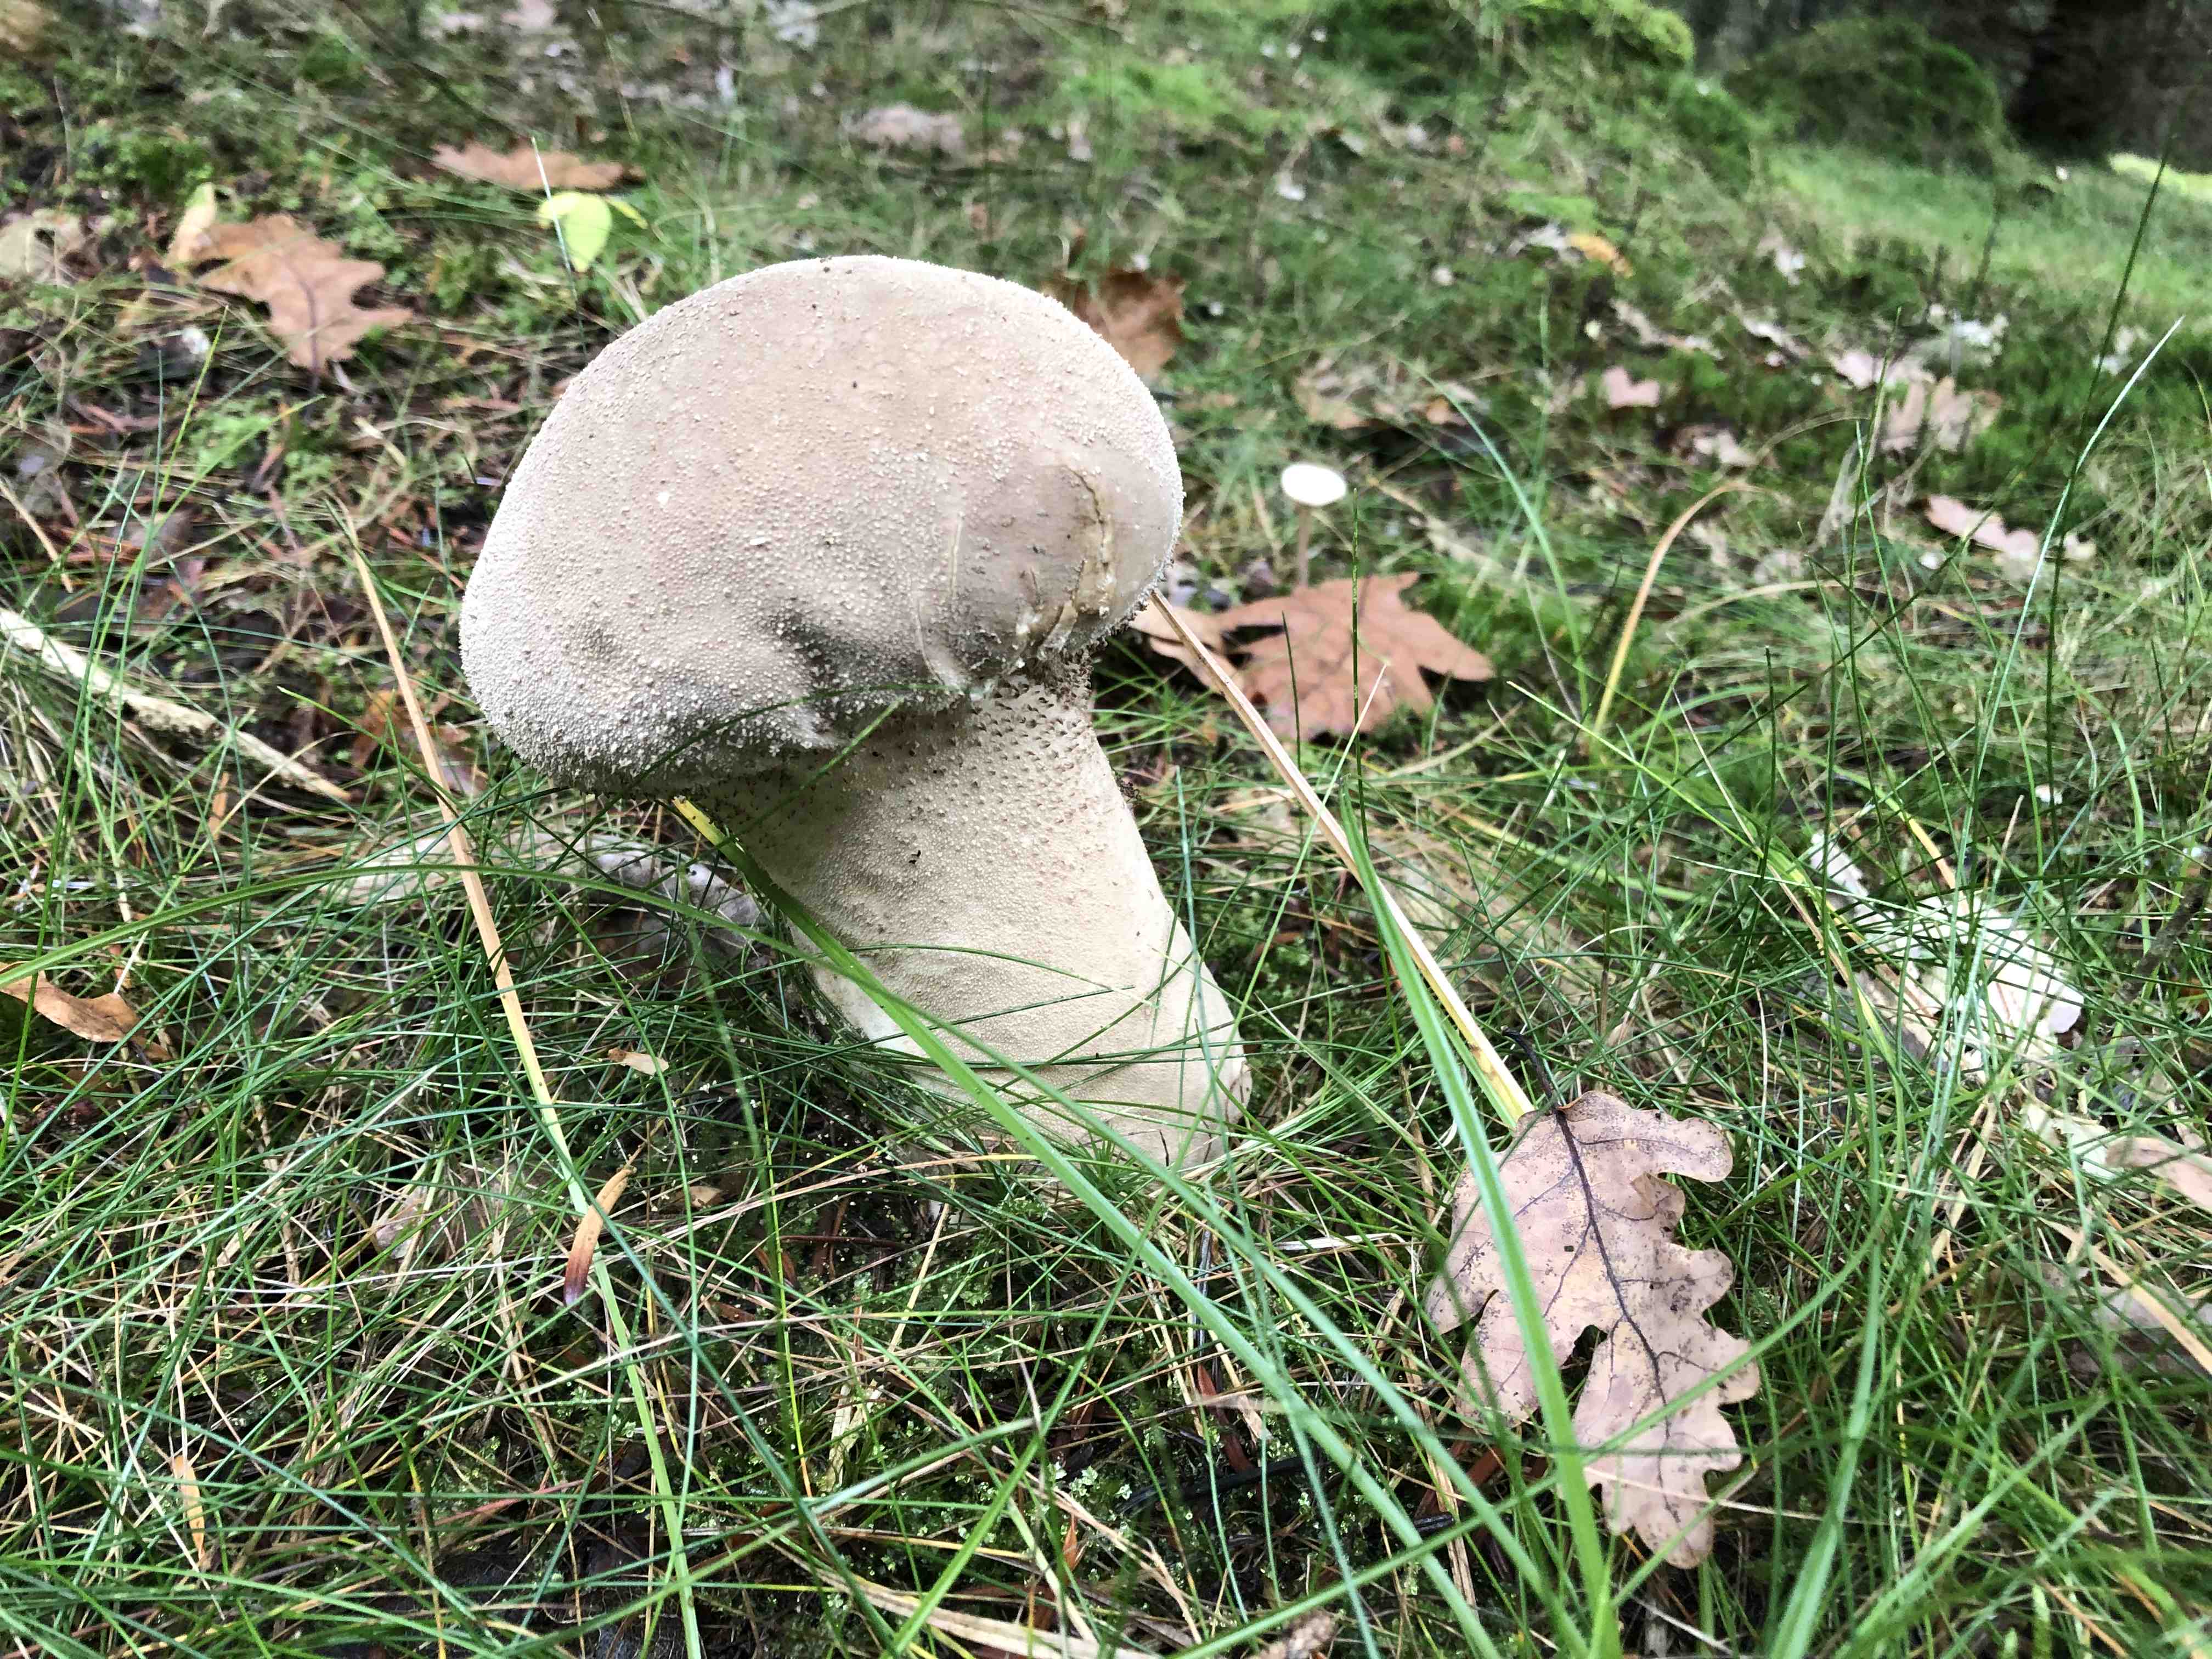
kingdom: Fungi
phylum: Basidiomycota
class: Agaricomycetes
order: Agaricales
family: Lycoperdaceae
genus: Lycoperdon
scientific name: Lycoperdon excipuliforme
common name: højstokket støvbold
